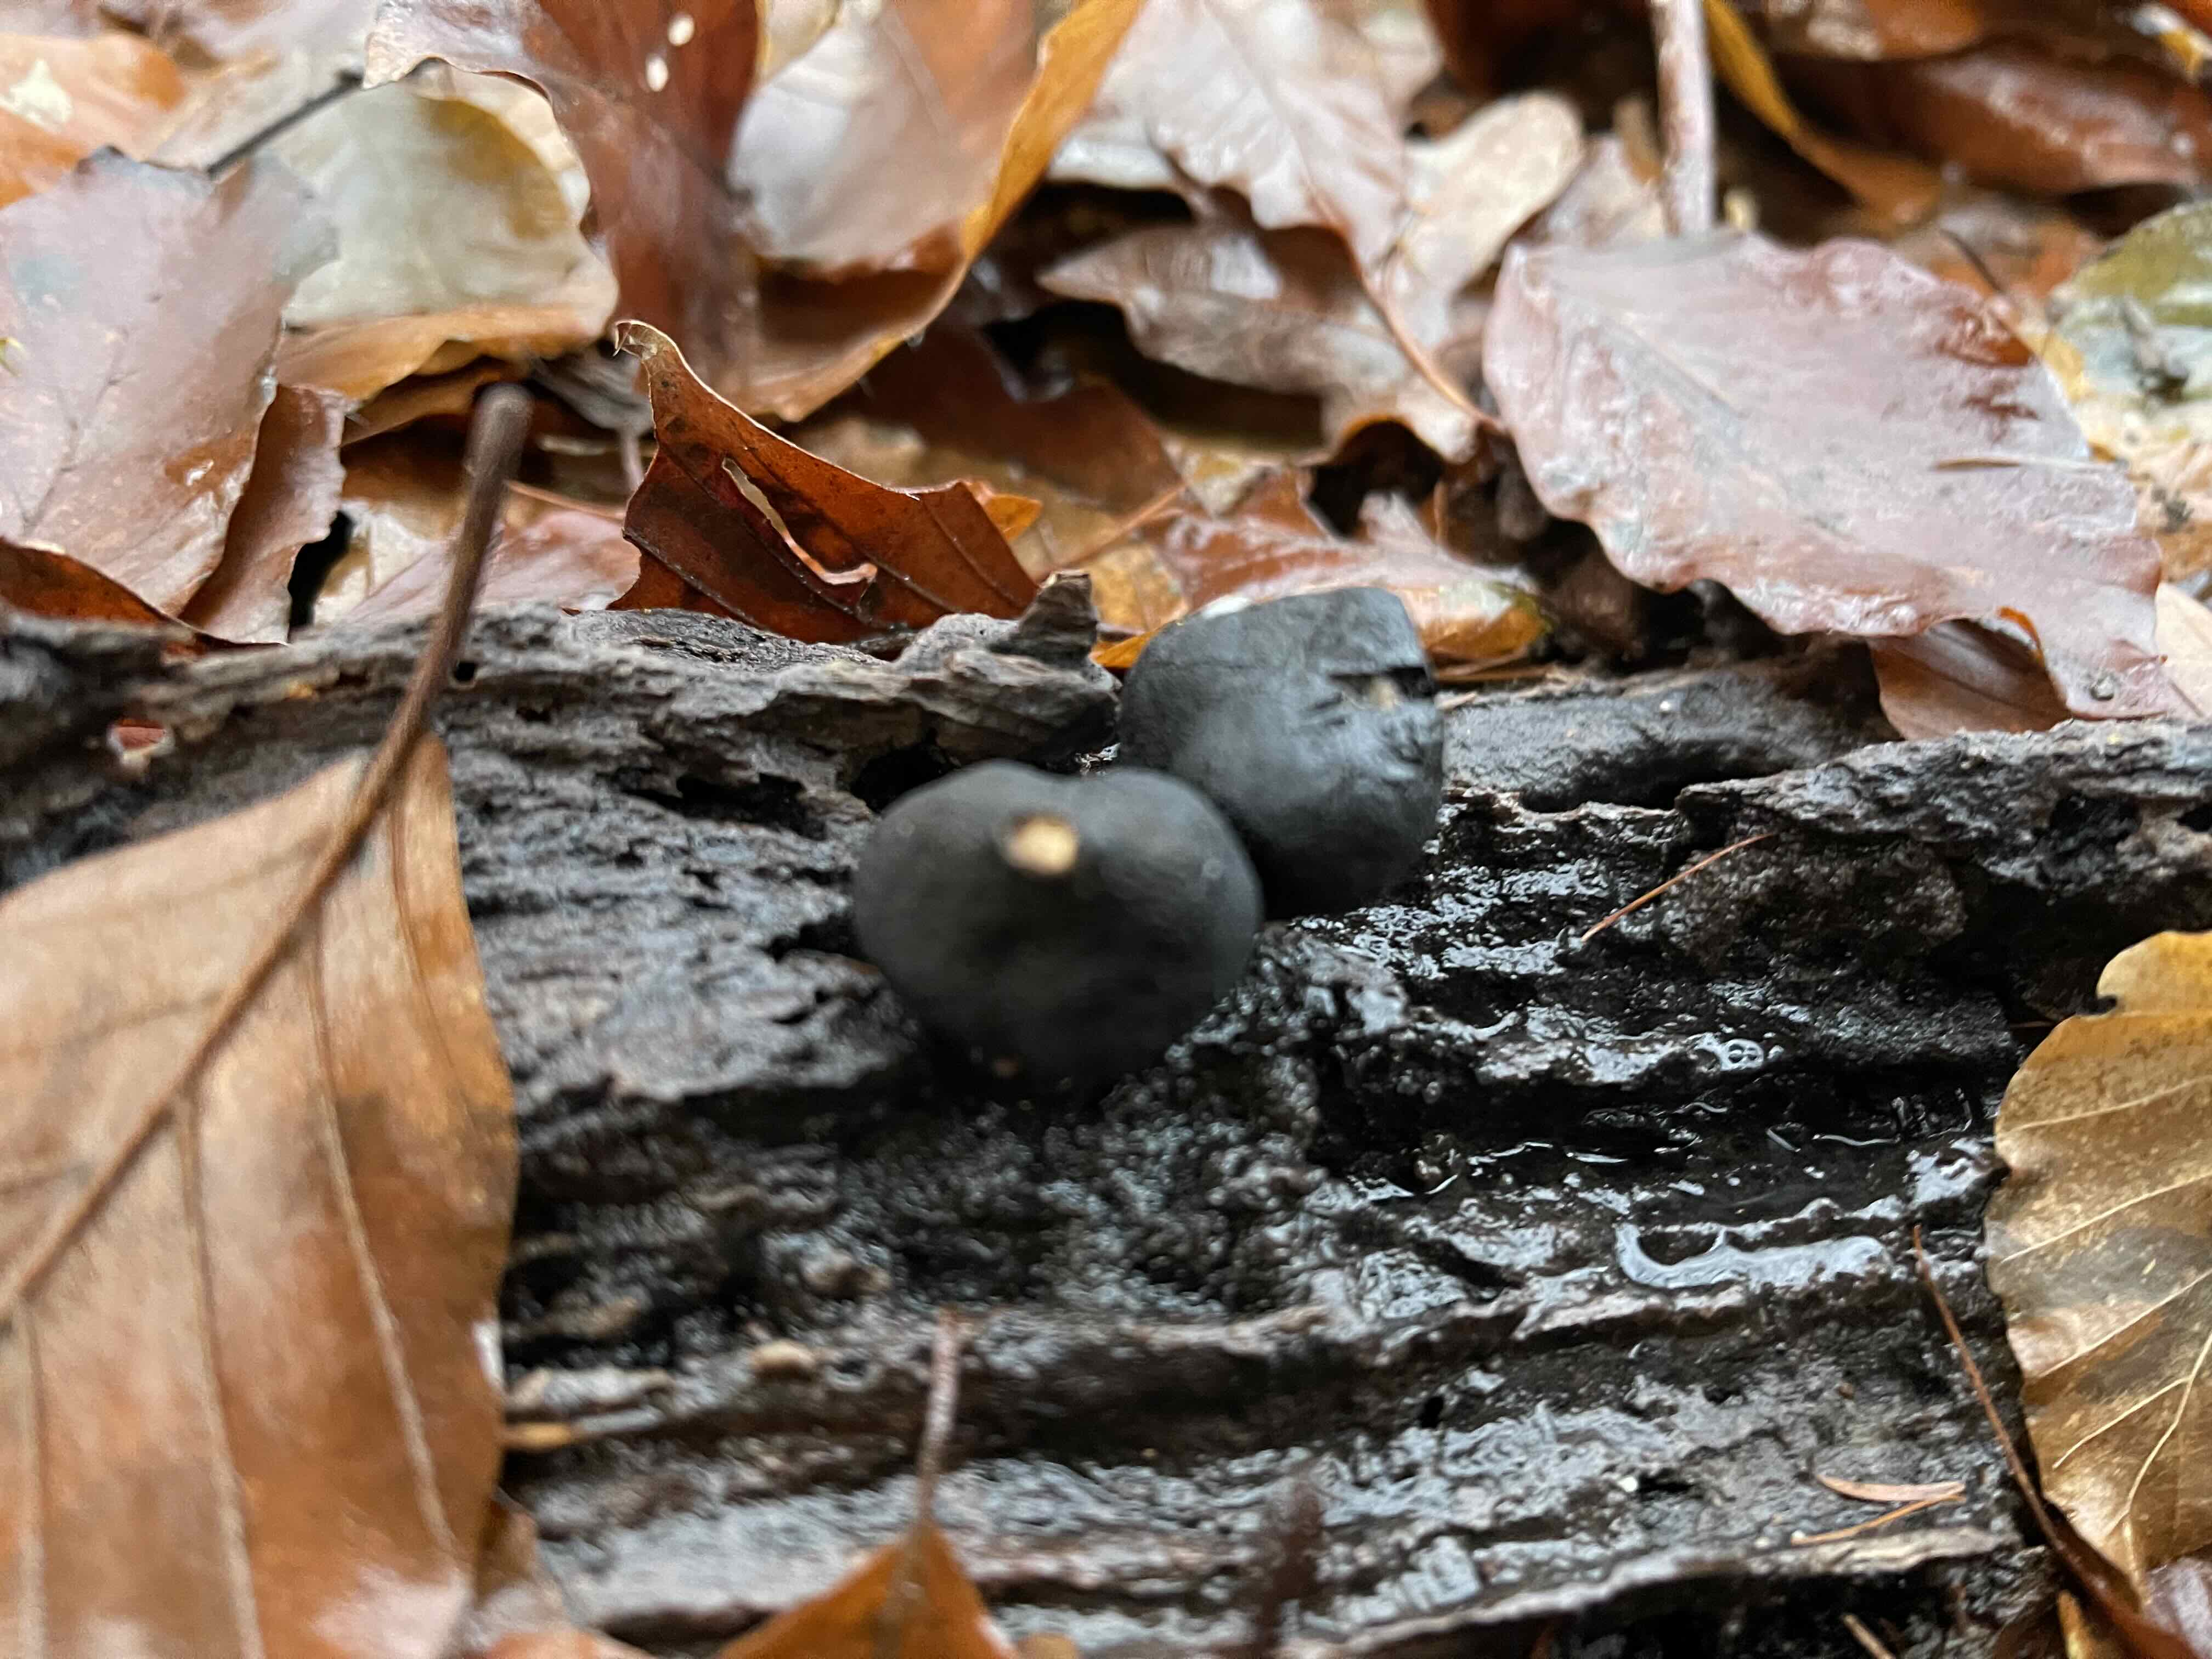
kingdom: Fungi
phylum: Ascomycota
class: Sordariomycetes
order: Xylariales
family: Xylariaceae
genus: Xylaria
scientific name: Xylaria polymorpha
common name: kølle-stødsvamp
